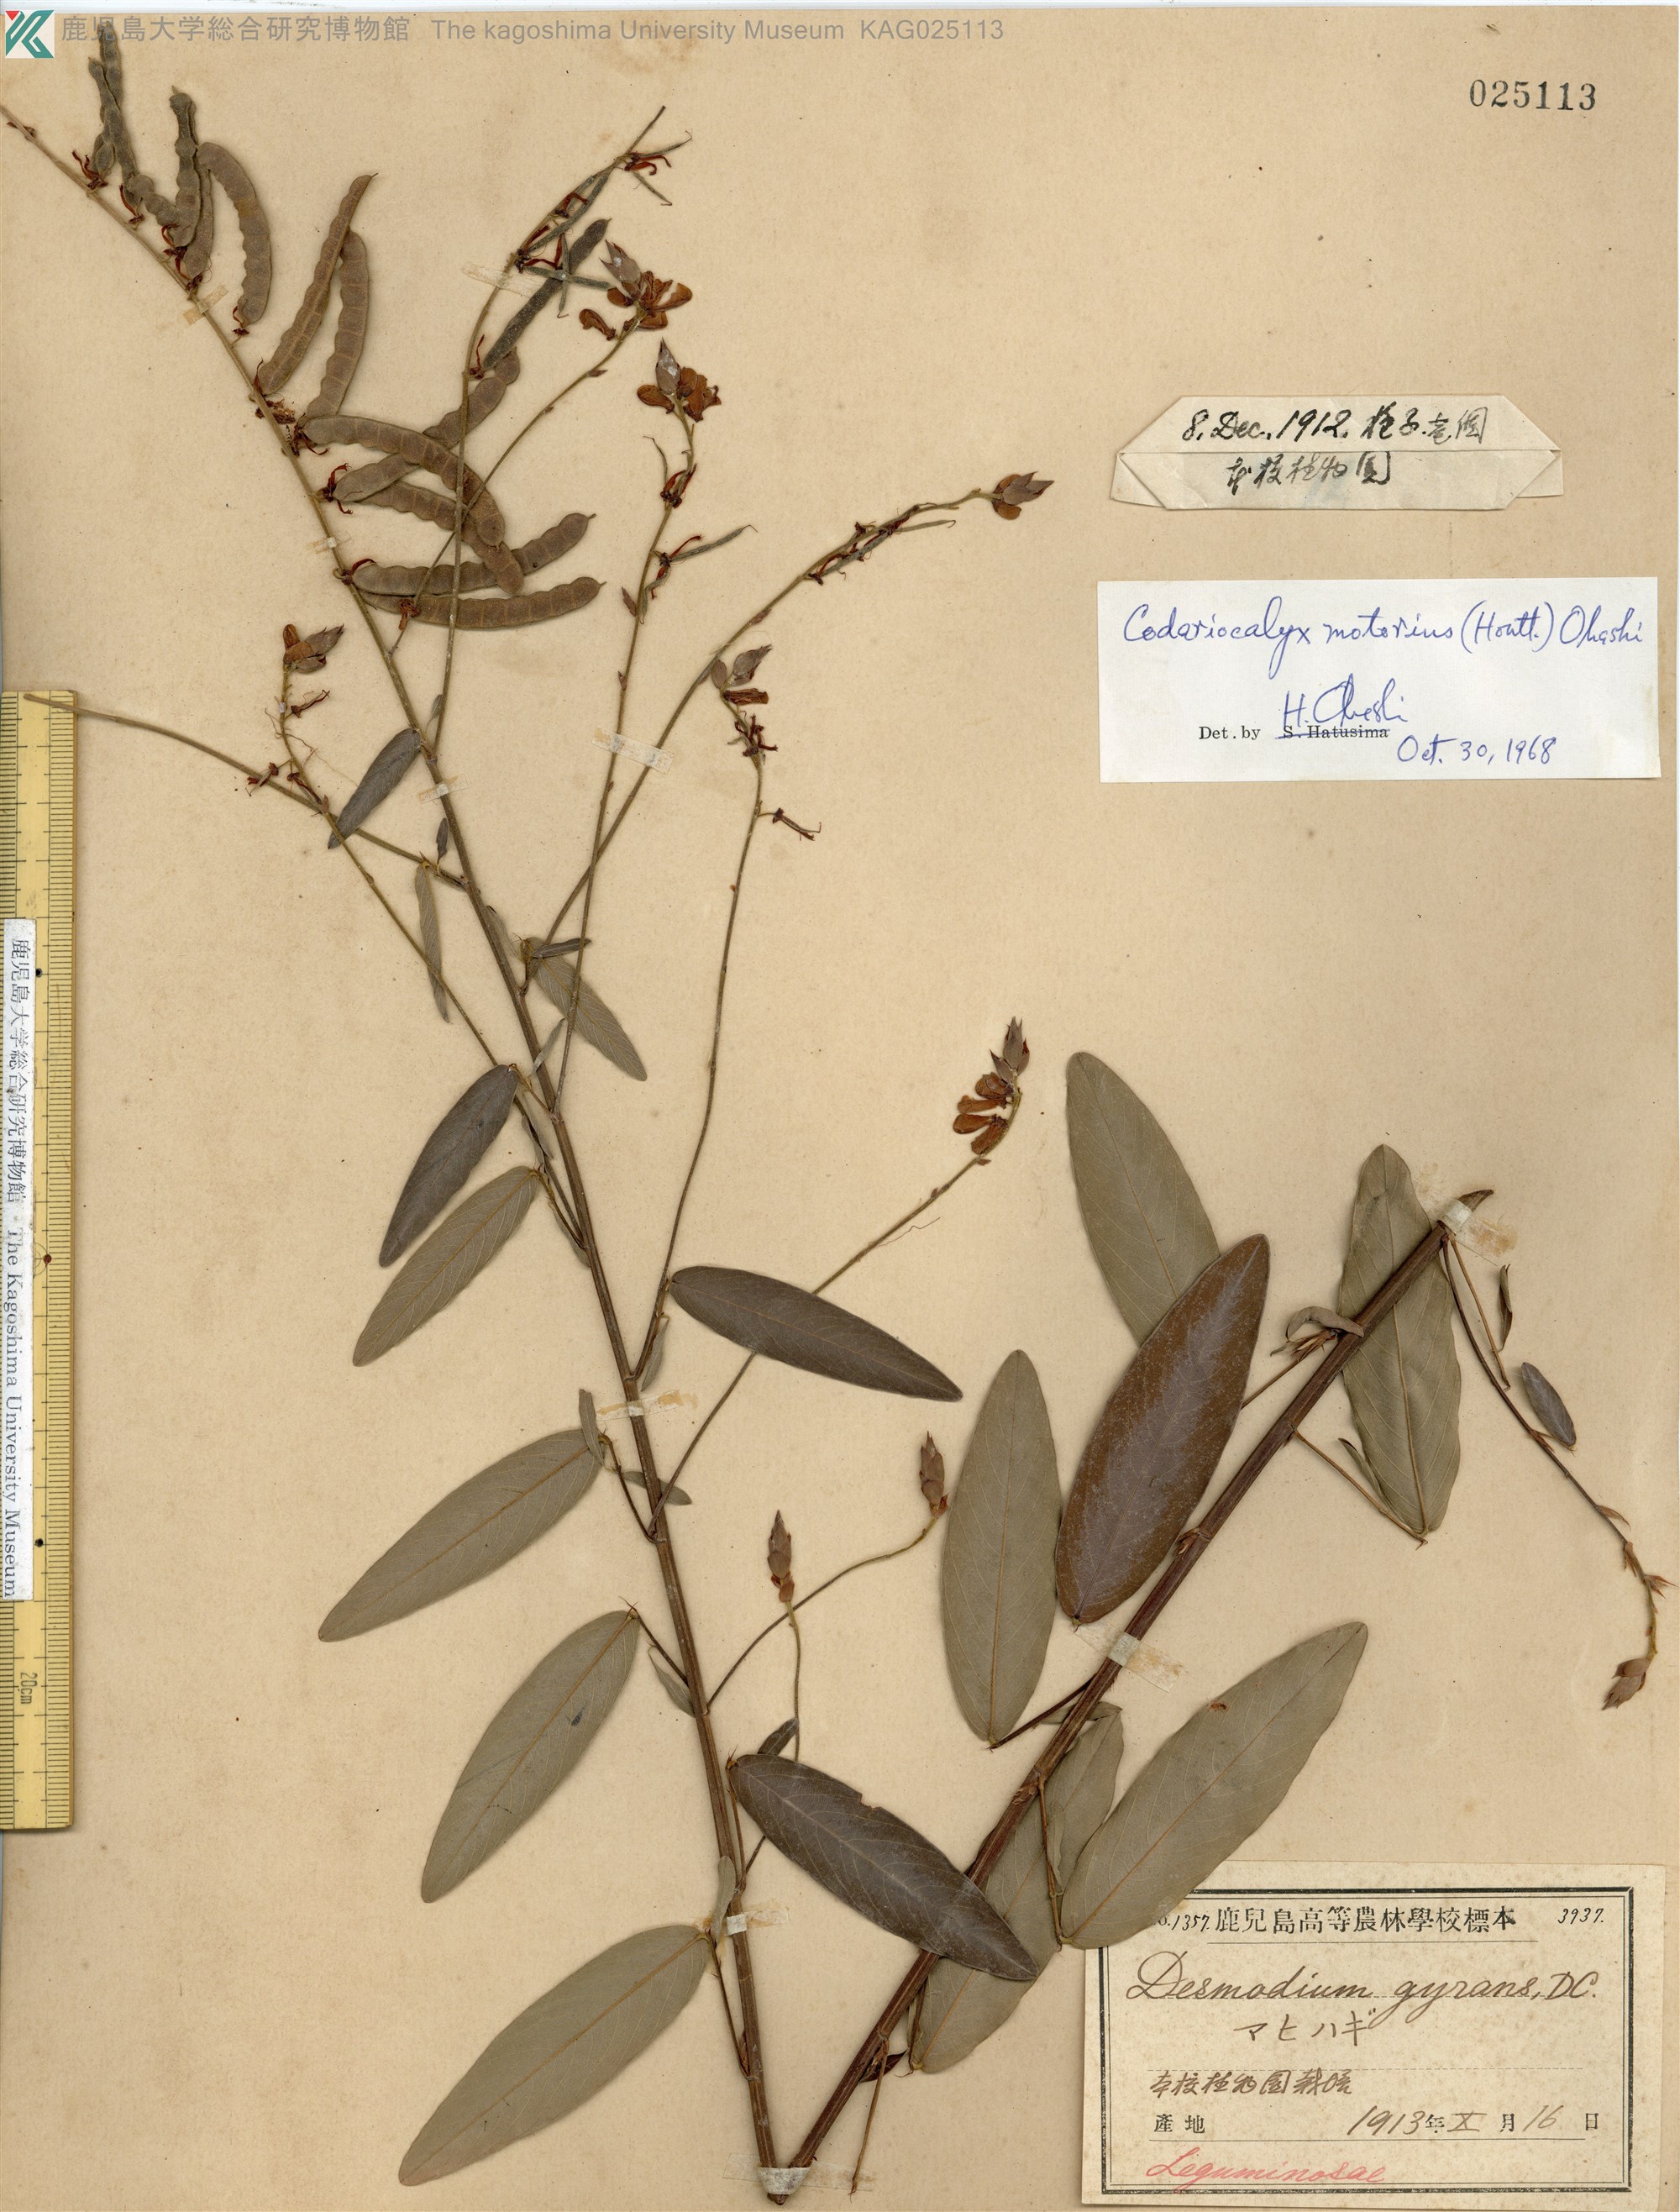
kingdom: Plantae
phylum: Tracheophyta
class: Magnoliopsida
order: Fabales
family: Fabaceae
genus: Codariocalyx
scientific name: Codariocalyx motorius
